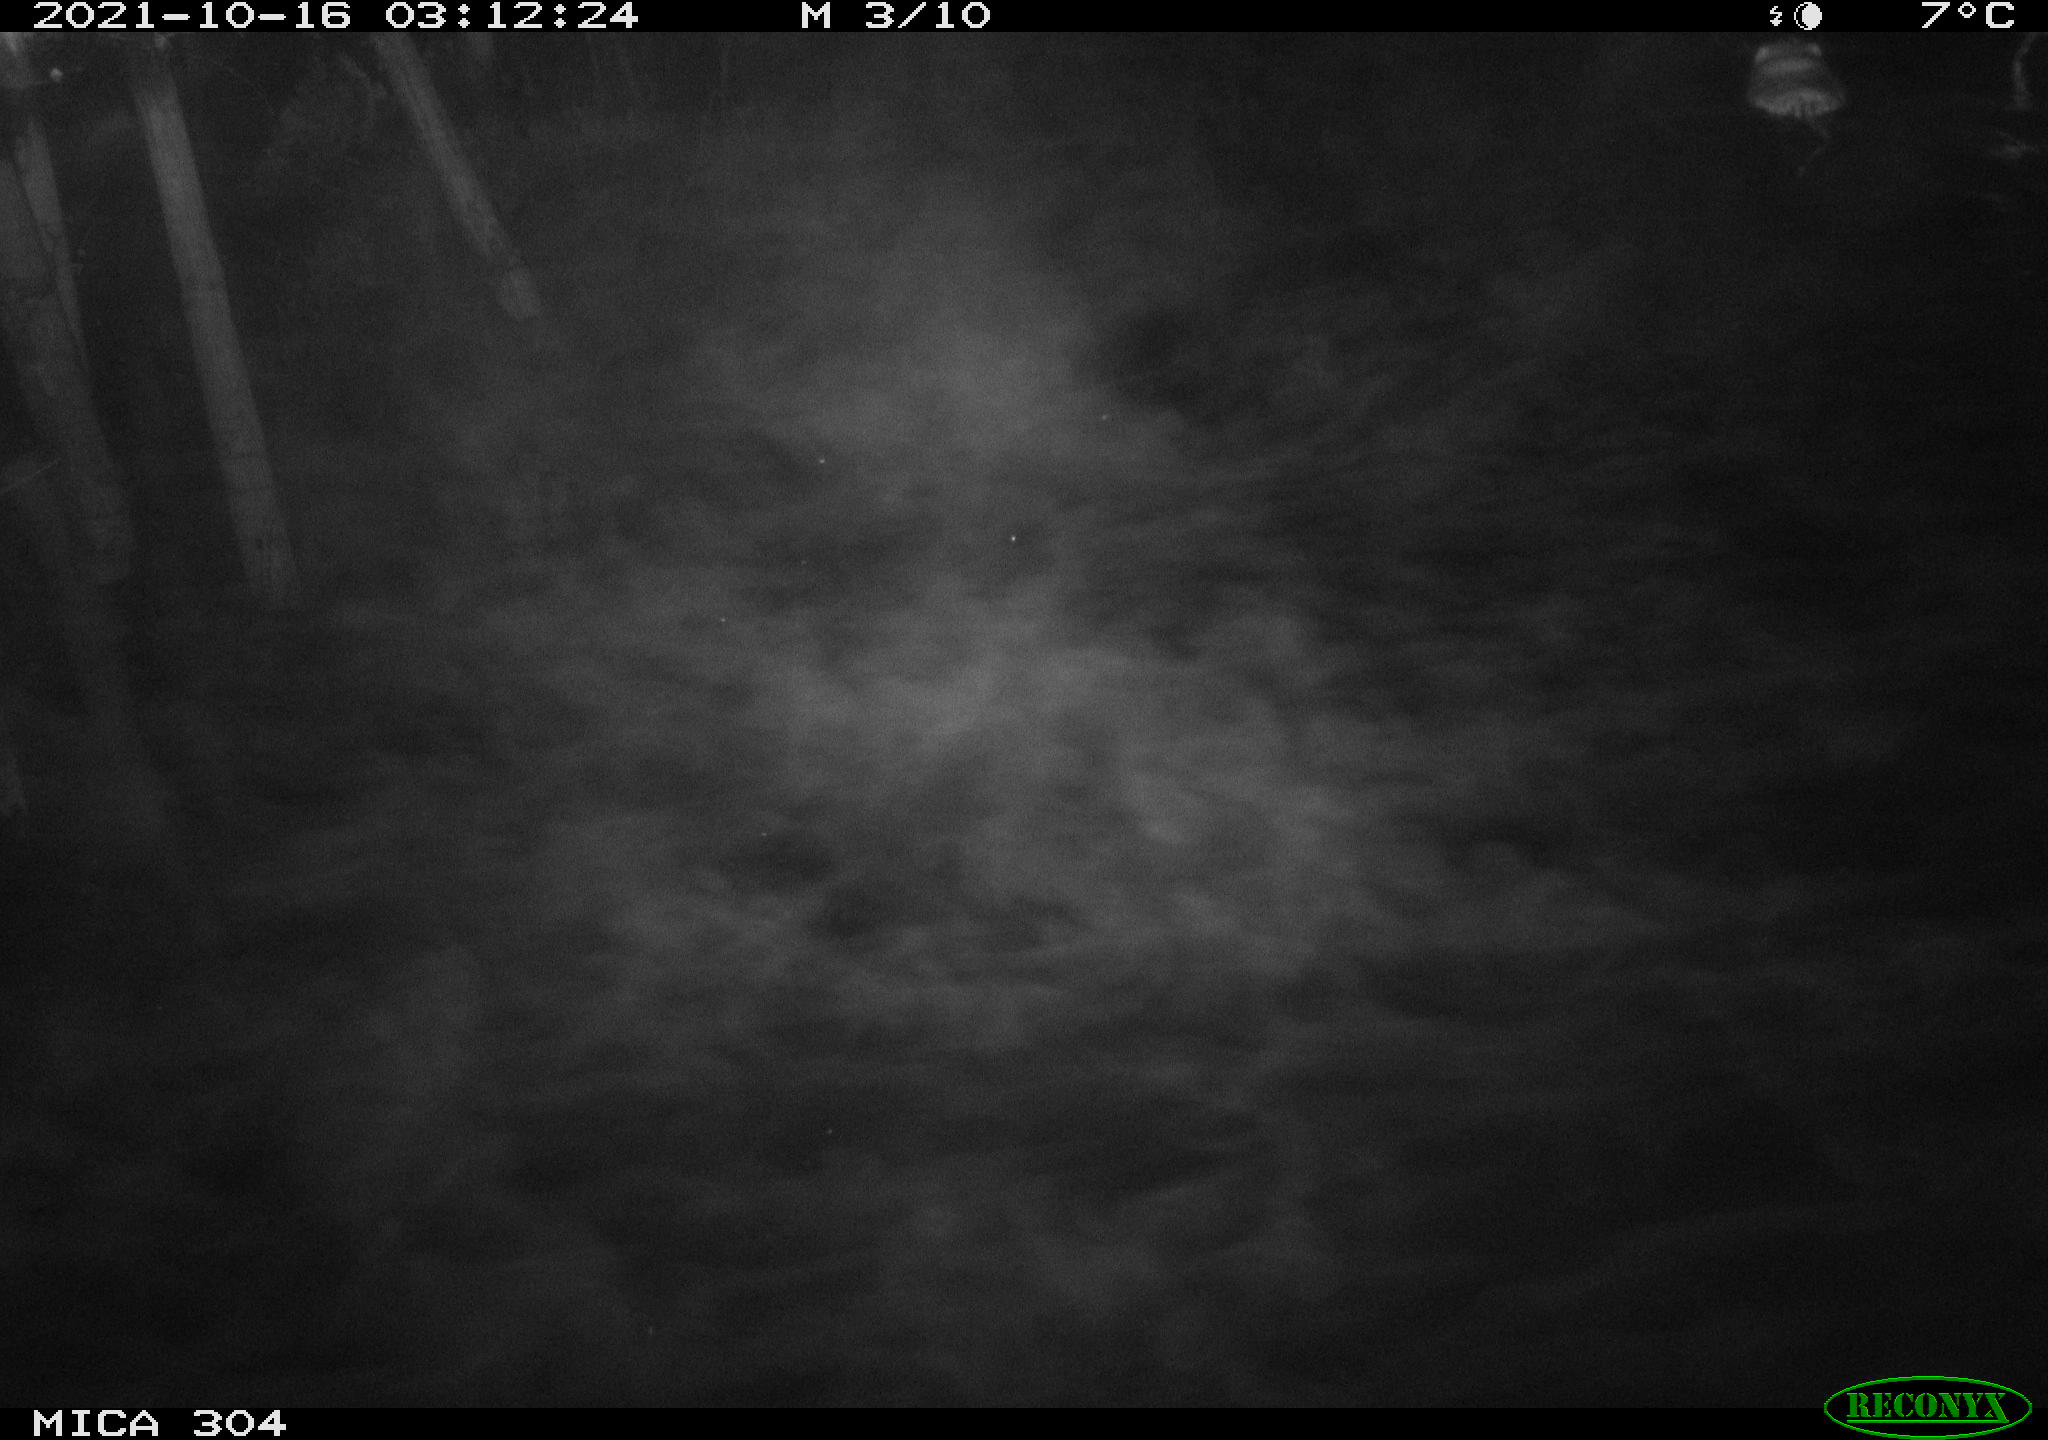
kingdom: Animalia
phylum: Chordata
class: Mammalia
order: Rodentia
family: Cricetidae
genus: Ondatra
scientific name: Ondatra zibethicus
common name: Muskrat
